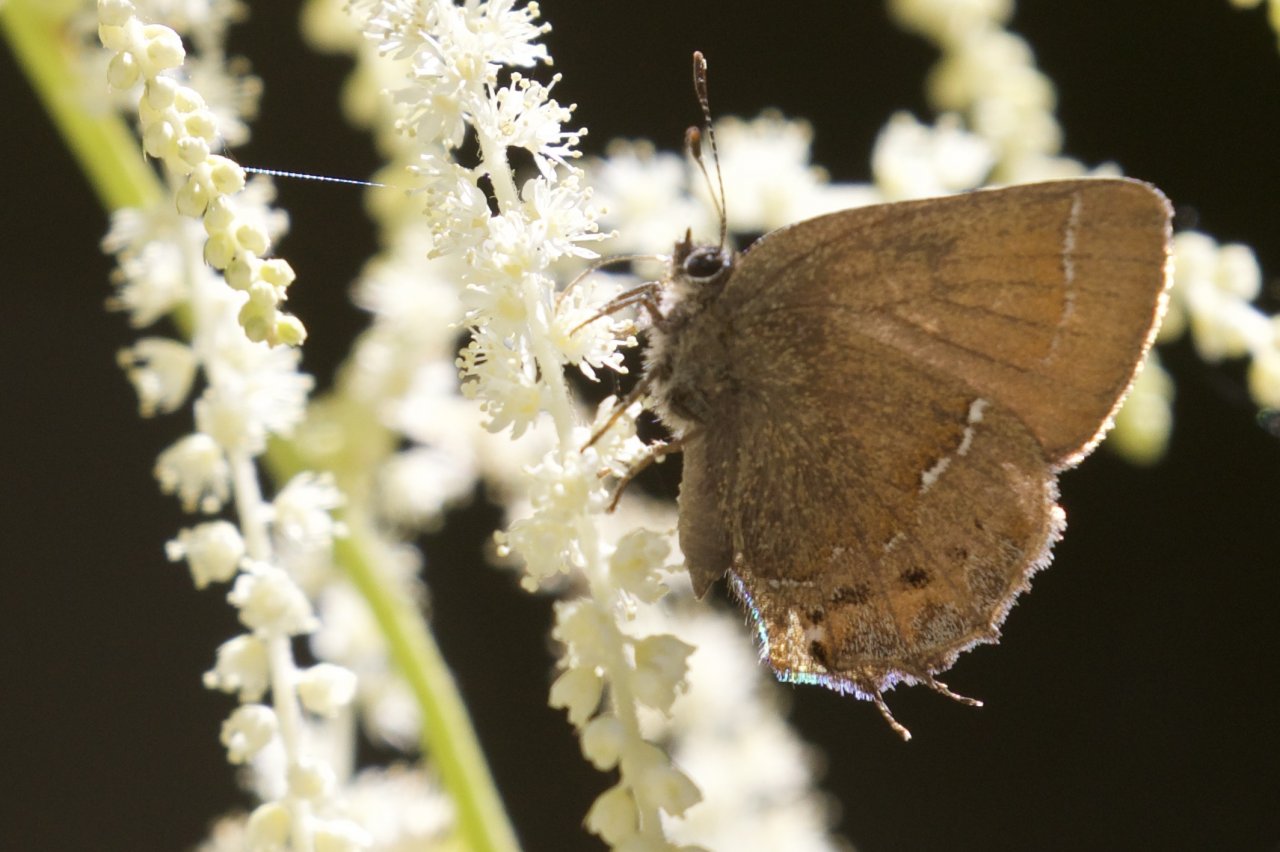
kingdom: Animalia
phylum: Arthropoda
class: Insecta
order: Lepidoptera
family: Lycaenidae
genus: Mitoura
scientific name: Mitoura gryneus
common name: Juniper Hairstreak
